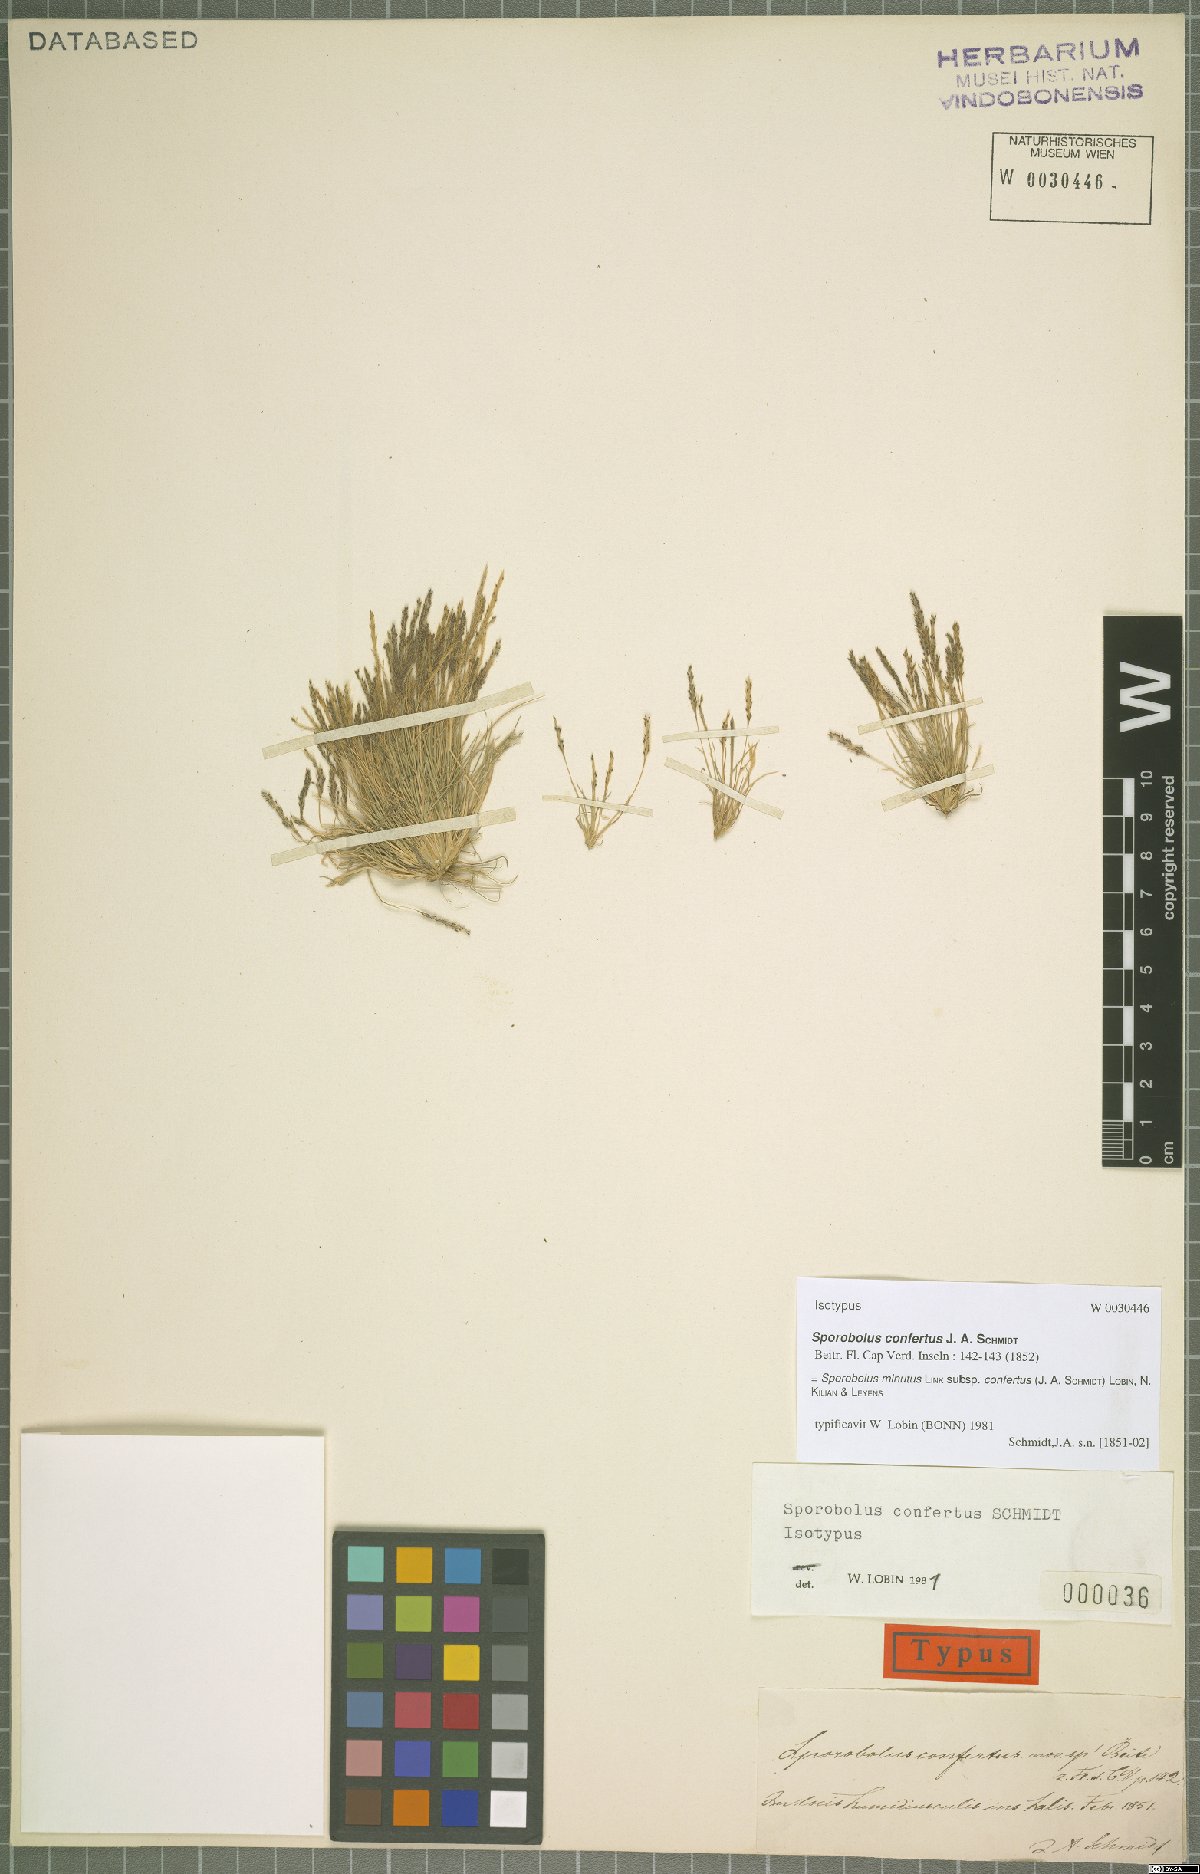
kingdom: Plantae
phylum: Tracheophyta
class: Liliopsida
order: Poales
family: Poaceae
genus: Sporobolus
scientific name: Sporobolus virginicus
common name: Beach dropseed
